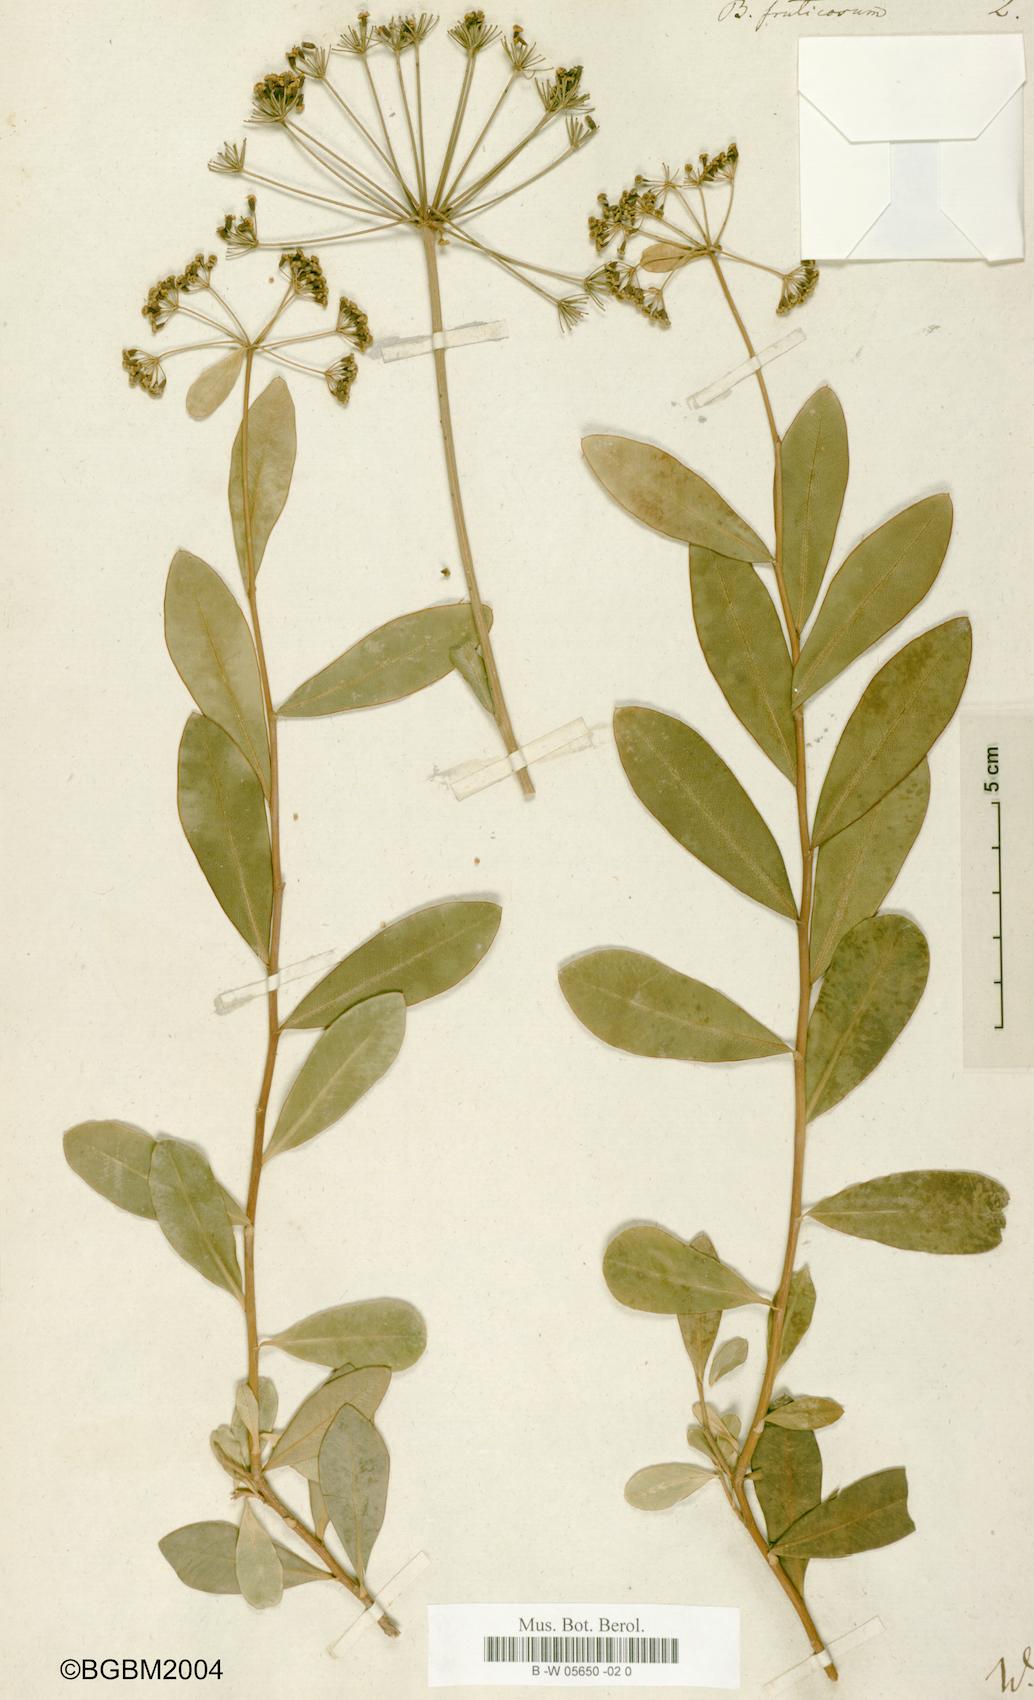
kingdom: Plantae
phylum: Tracheophyta
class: Magnoliopsida
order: Apiales
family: Apiaceae
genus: Bupleurum
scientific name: Bupleurum fruticosum
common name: Shrubby hare's-ear
